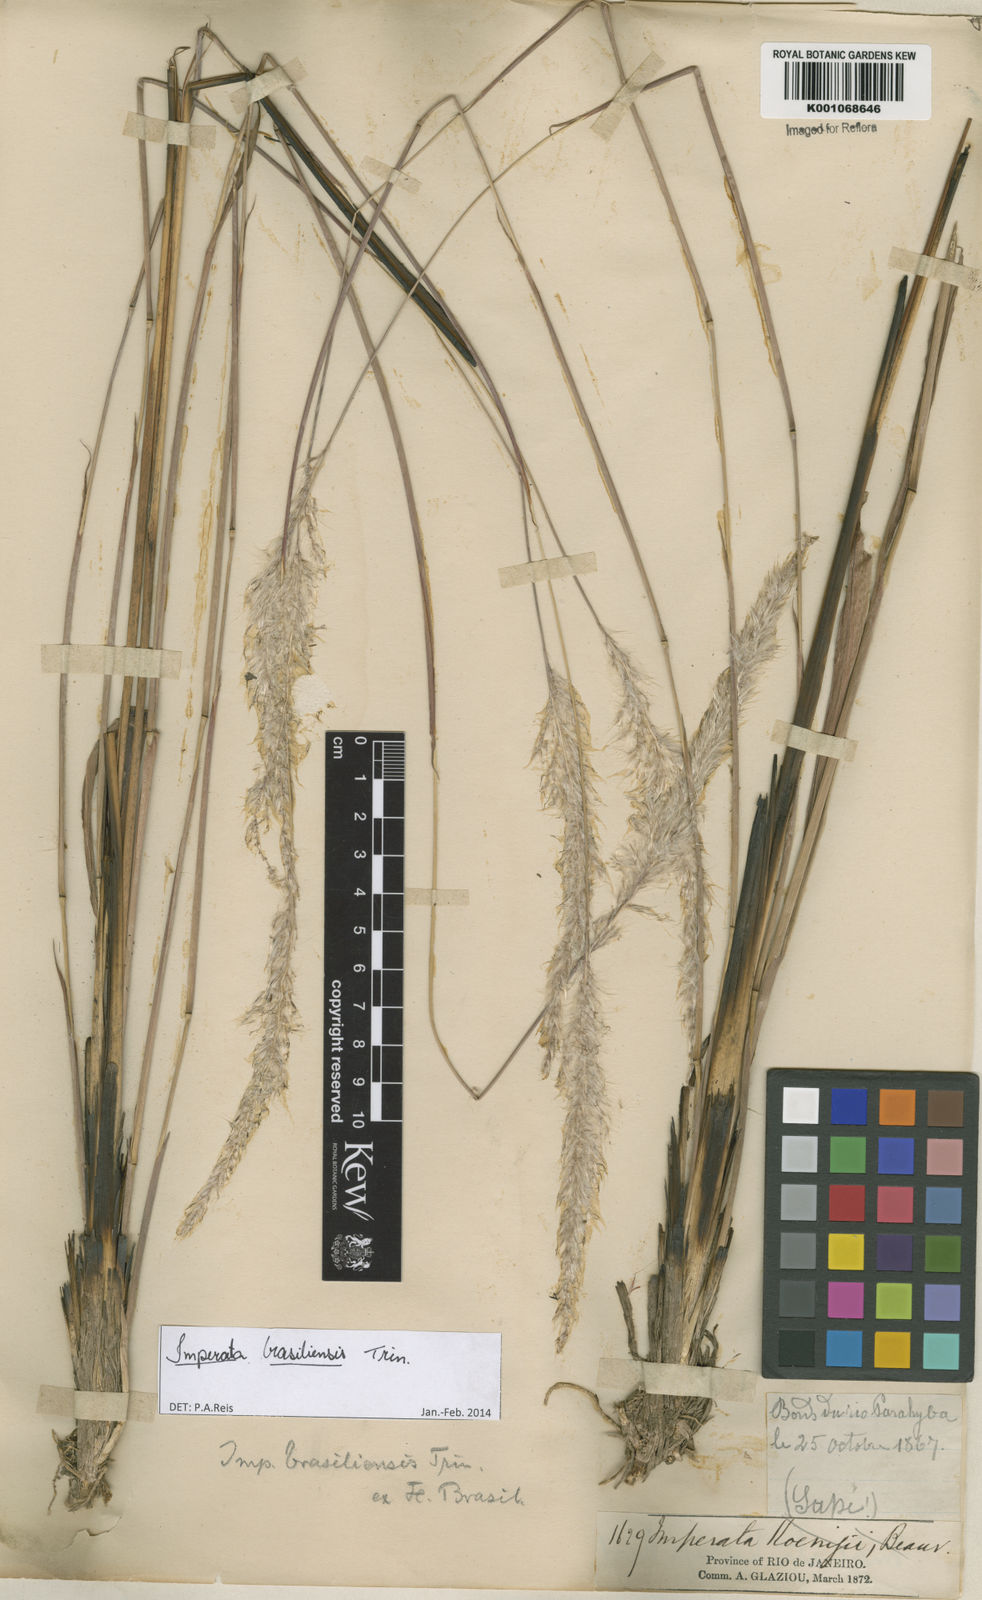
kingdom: Plantae
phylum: Tracheophyta
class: Liliopsida
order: Poales
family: Poaceae
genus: Imperata
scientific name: Imperata brasiliensis
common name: Brazilian satintail
